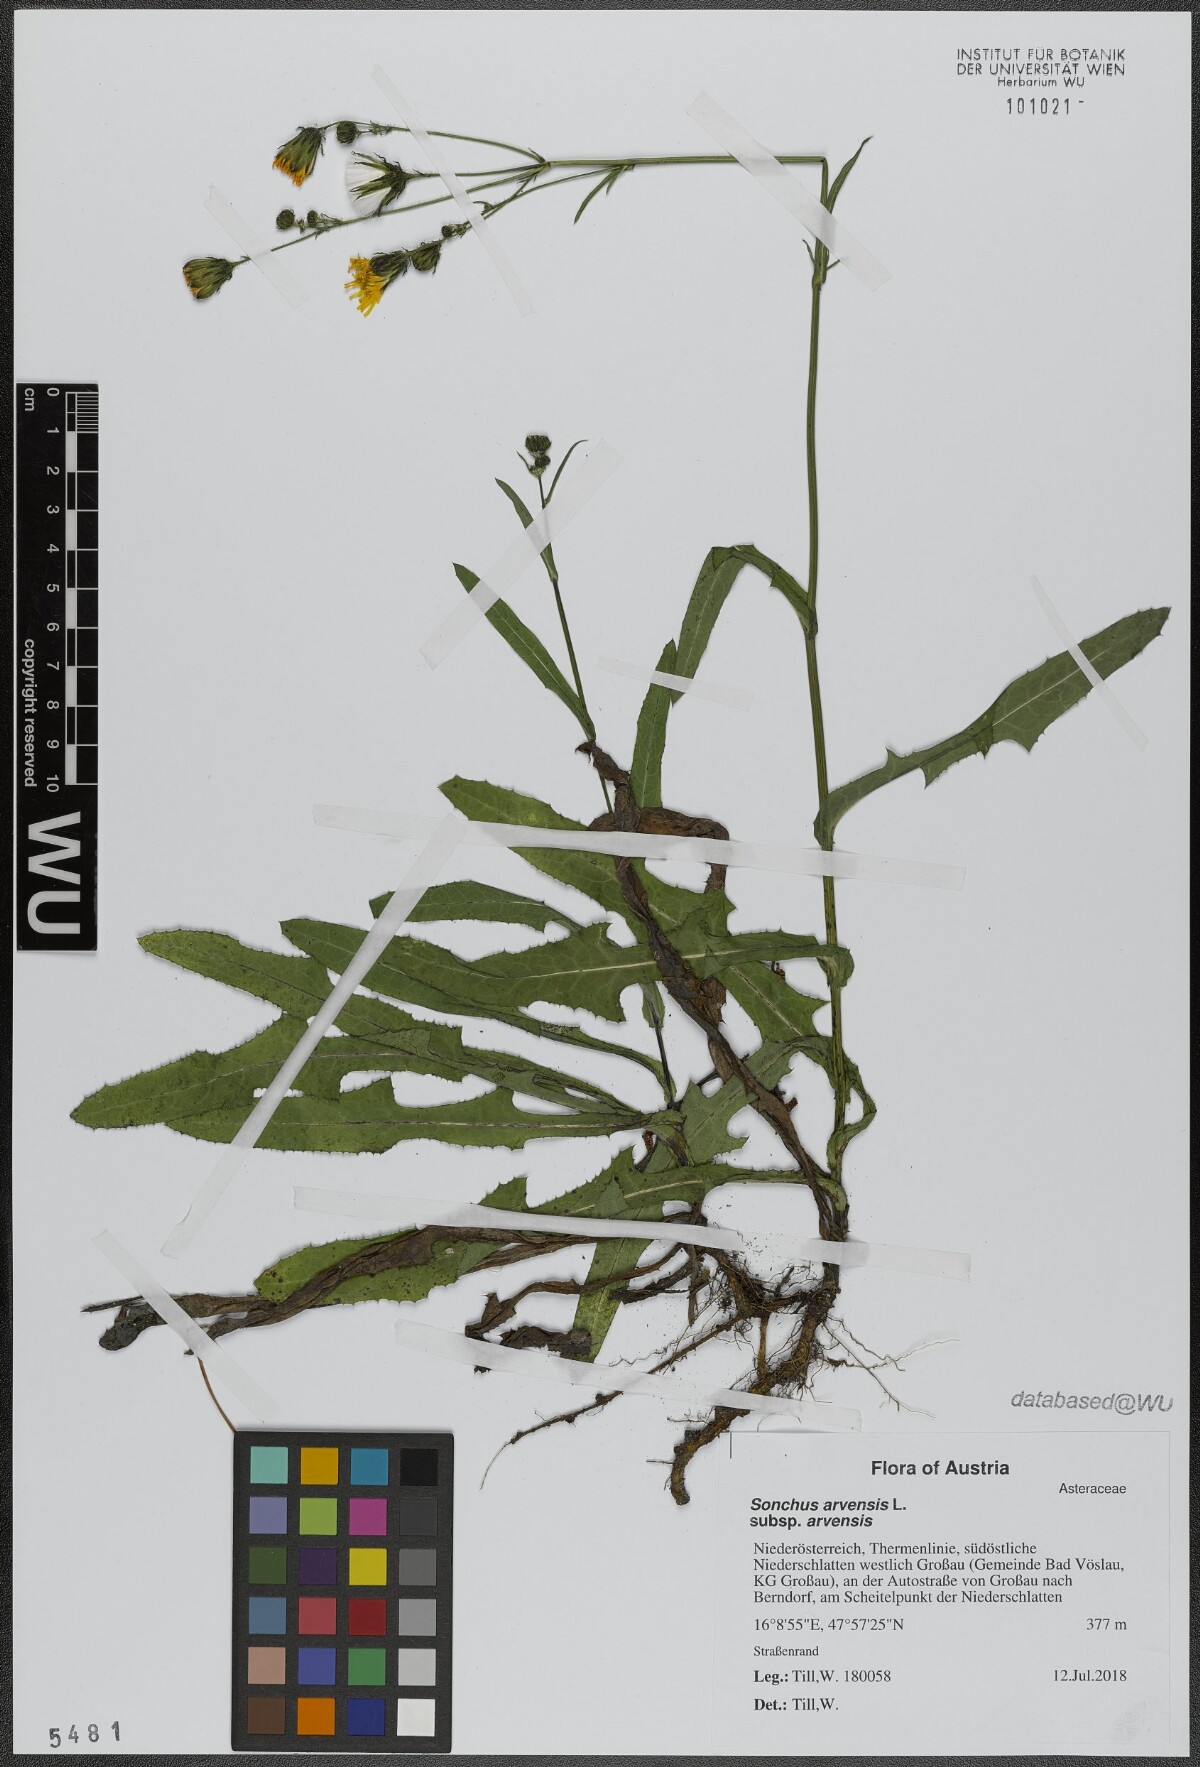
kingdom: Plantae
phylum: Tracheophyta
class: Magnoliopsida
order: Asterales
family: Asteraceae
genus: Sonchus
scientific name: Sonchus arvensis
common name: Perennial sow-thistle
